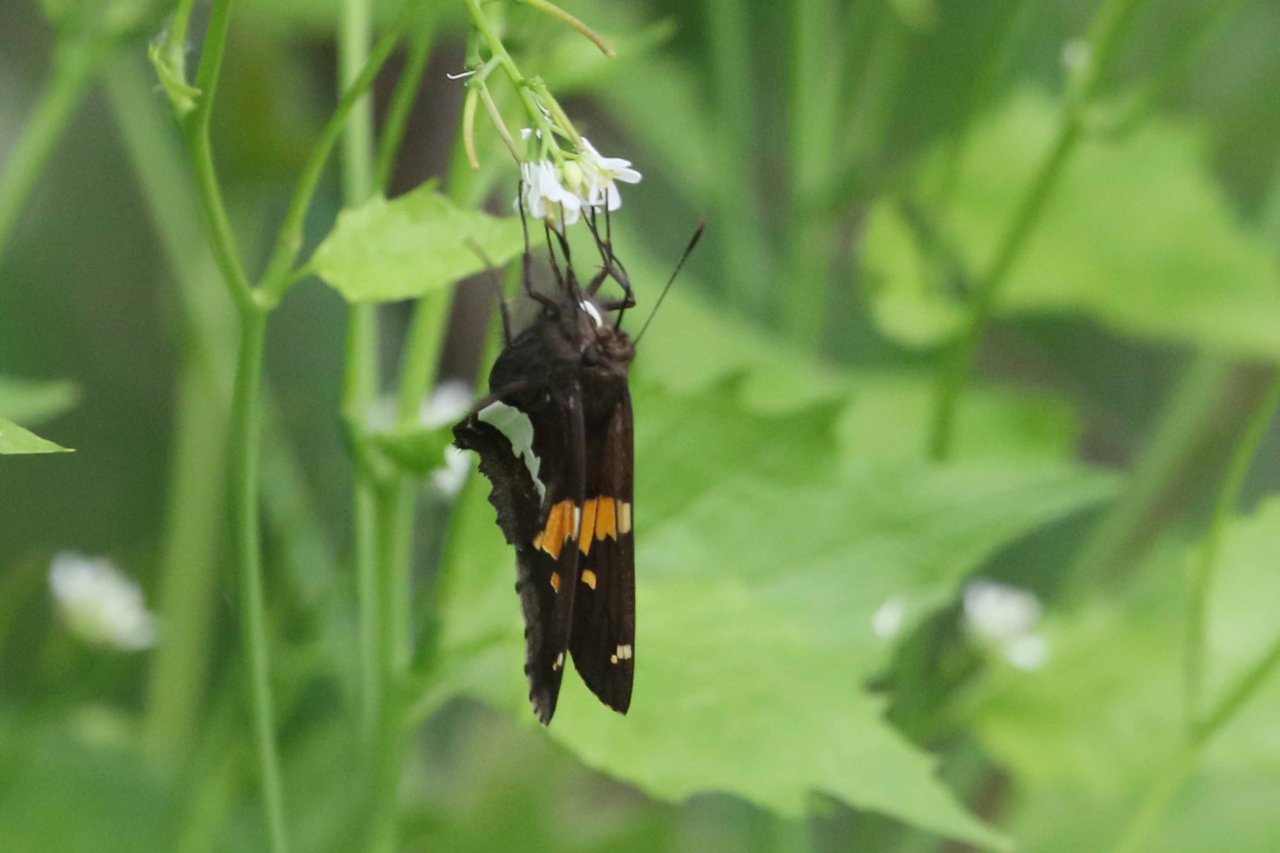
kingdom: Animalia
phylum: Arthropoda
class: Insecta
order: Lepidoptera
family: Hesperiidae
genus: Epargyreus
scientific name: Epargyreus clarus
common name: Silver-spotted Skipper
